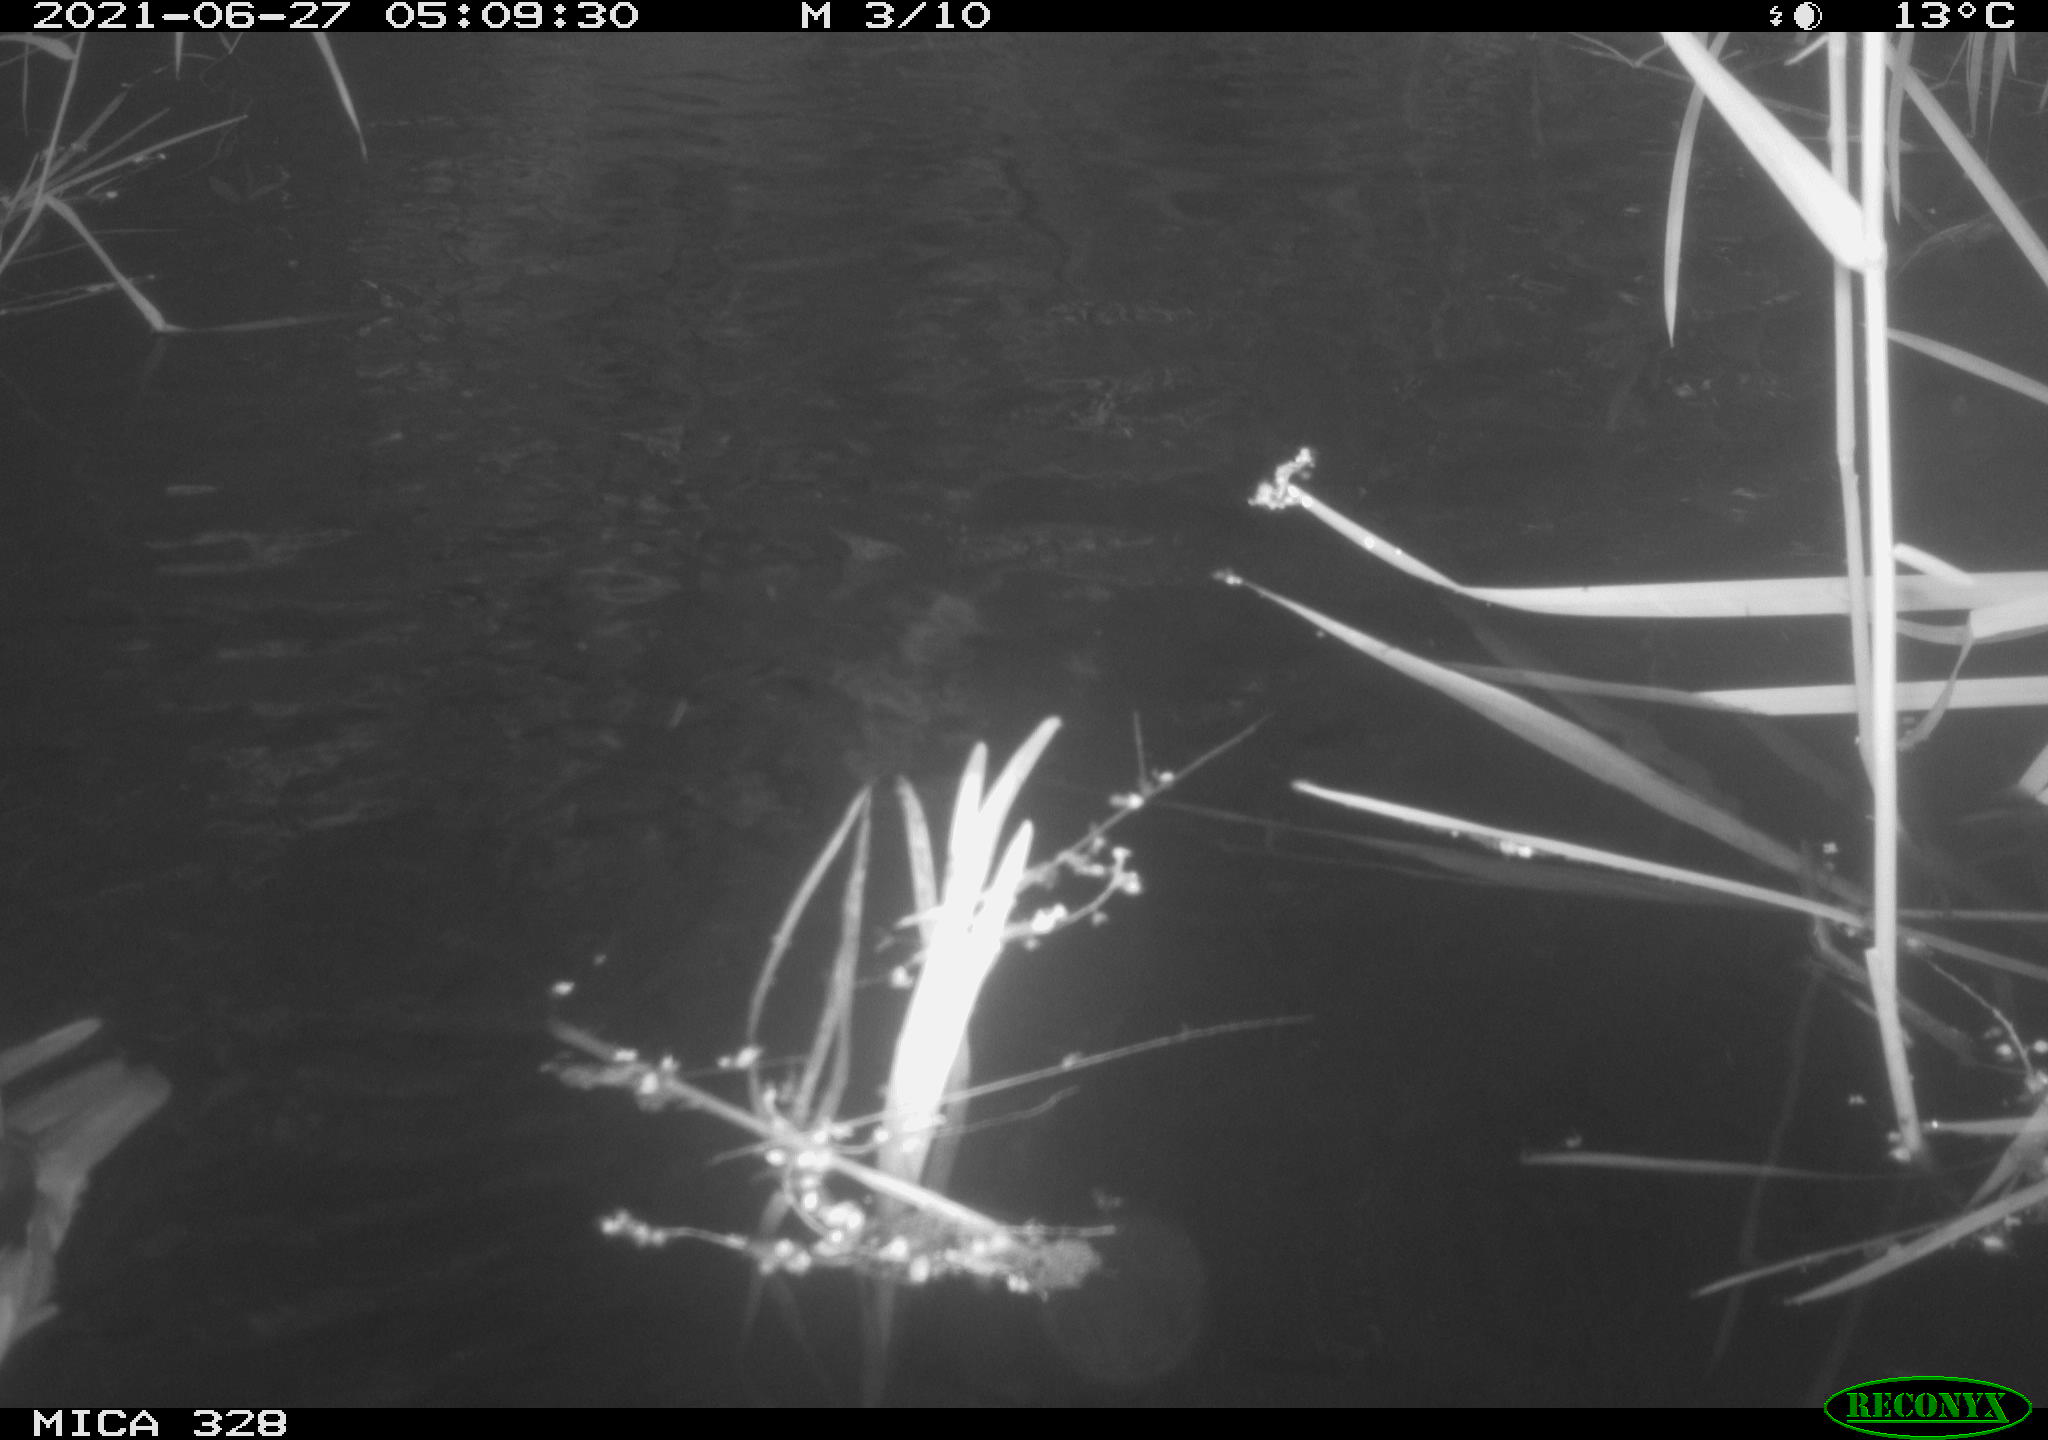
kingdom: Animalia
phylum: Chordata
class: Aves
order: Anseriformes
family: Anatidae
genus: Aix
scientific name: Aix galericulata
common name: Mandarin duck
